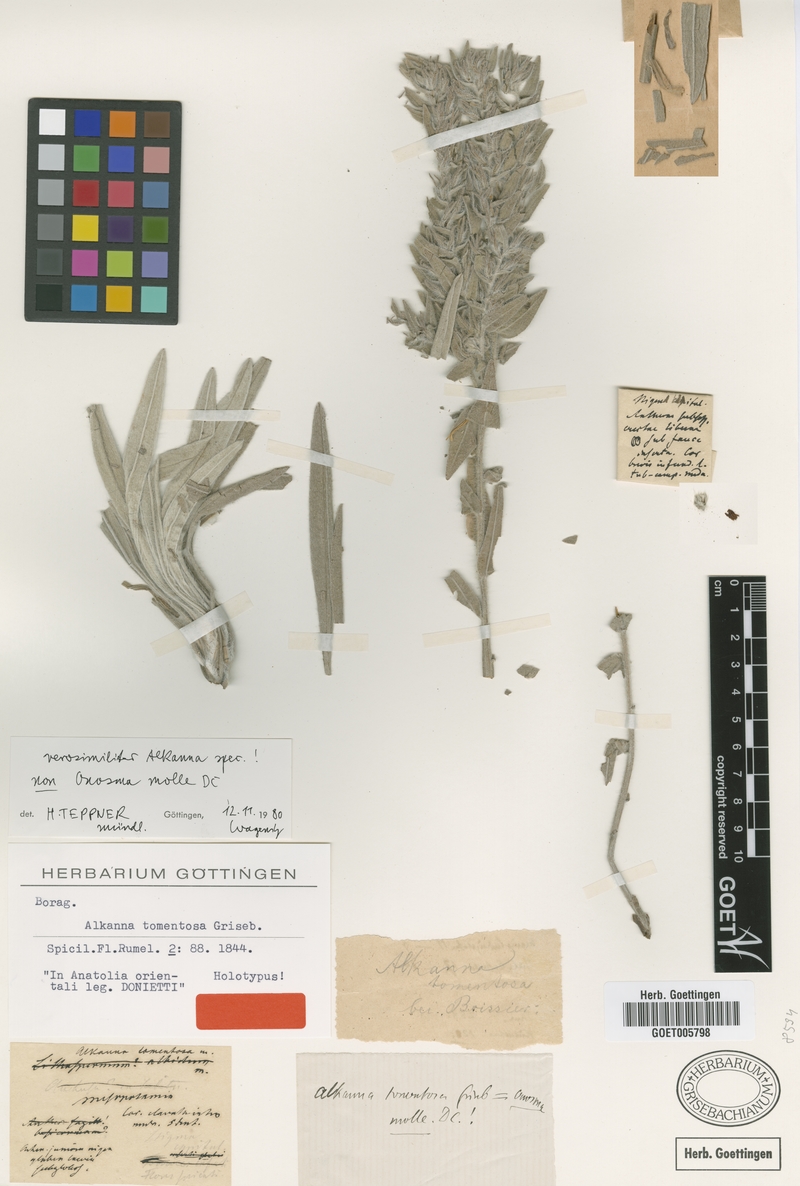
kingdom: Plantae
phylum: Tracheophyta
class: Magnoliopsida
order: Boraginales
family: Boraginaceae
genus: Onosma
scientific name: Onosma mollis
